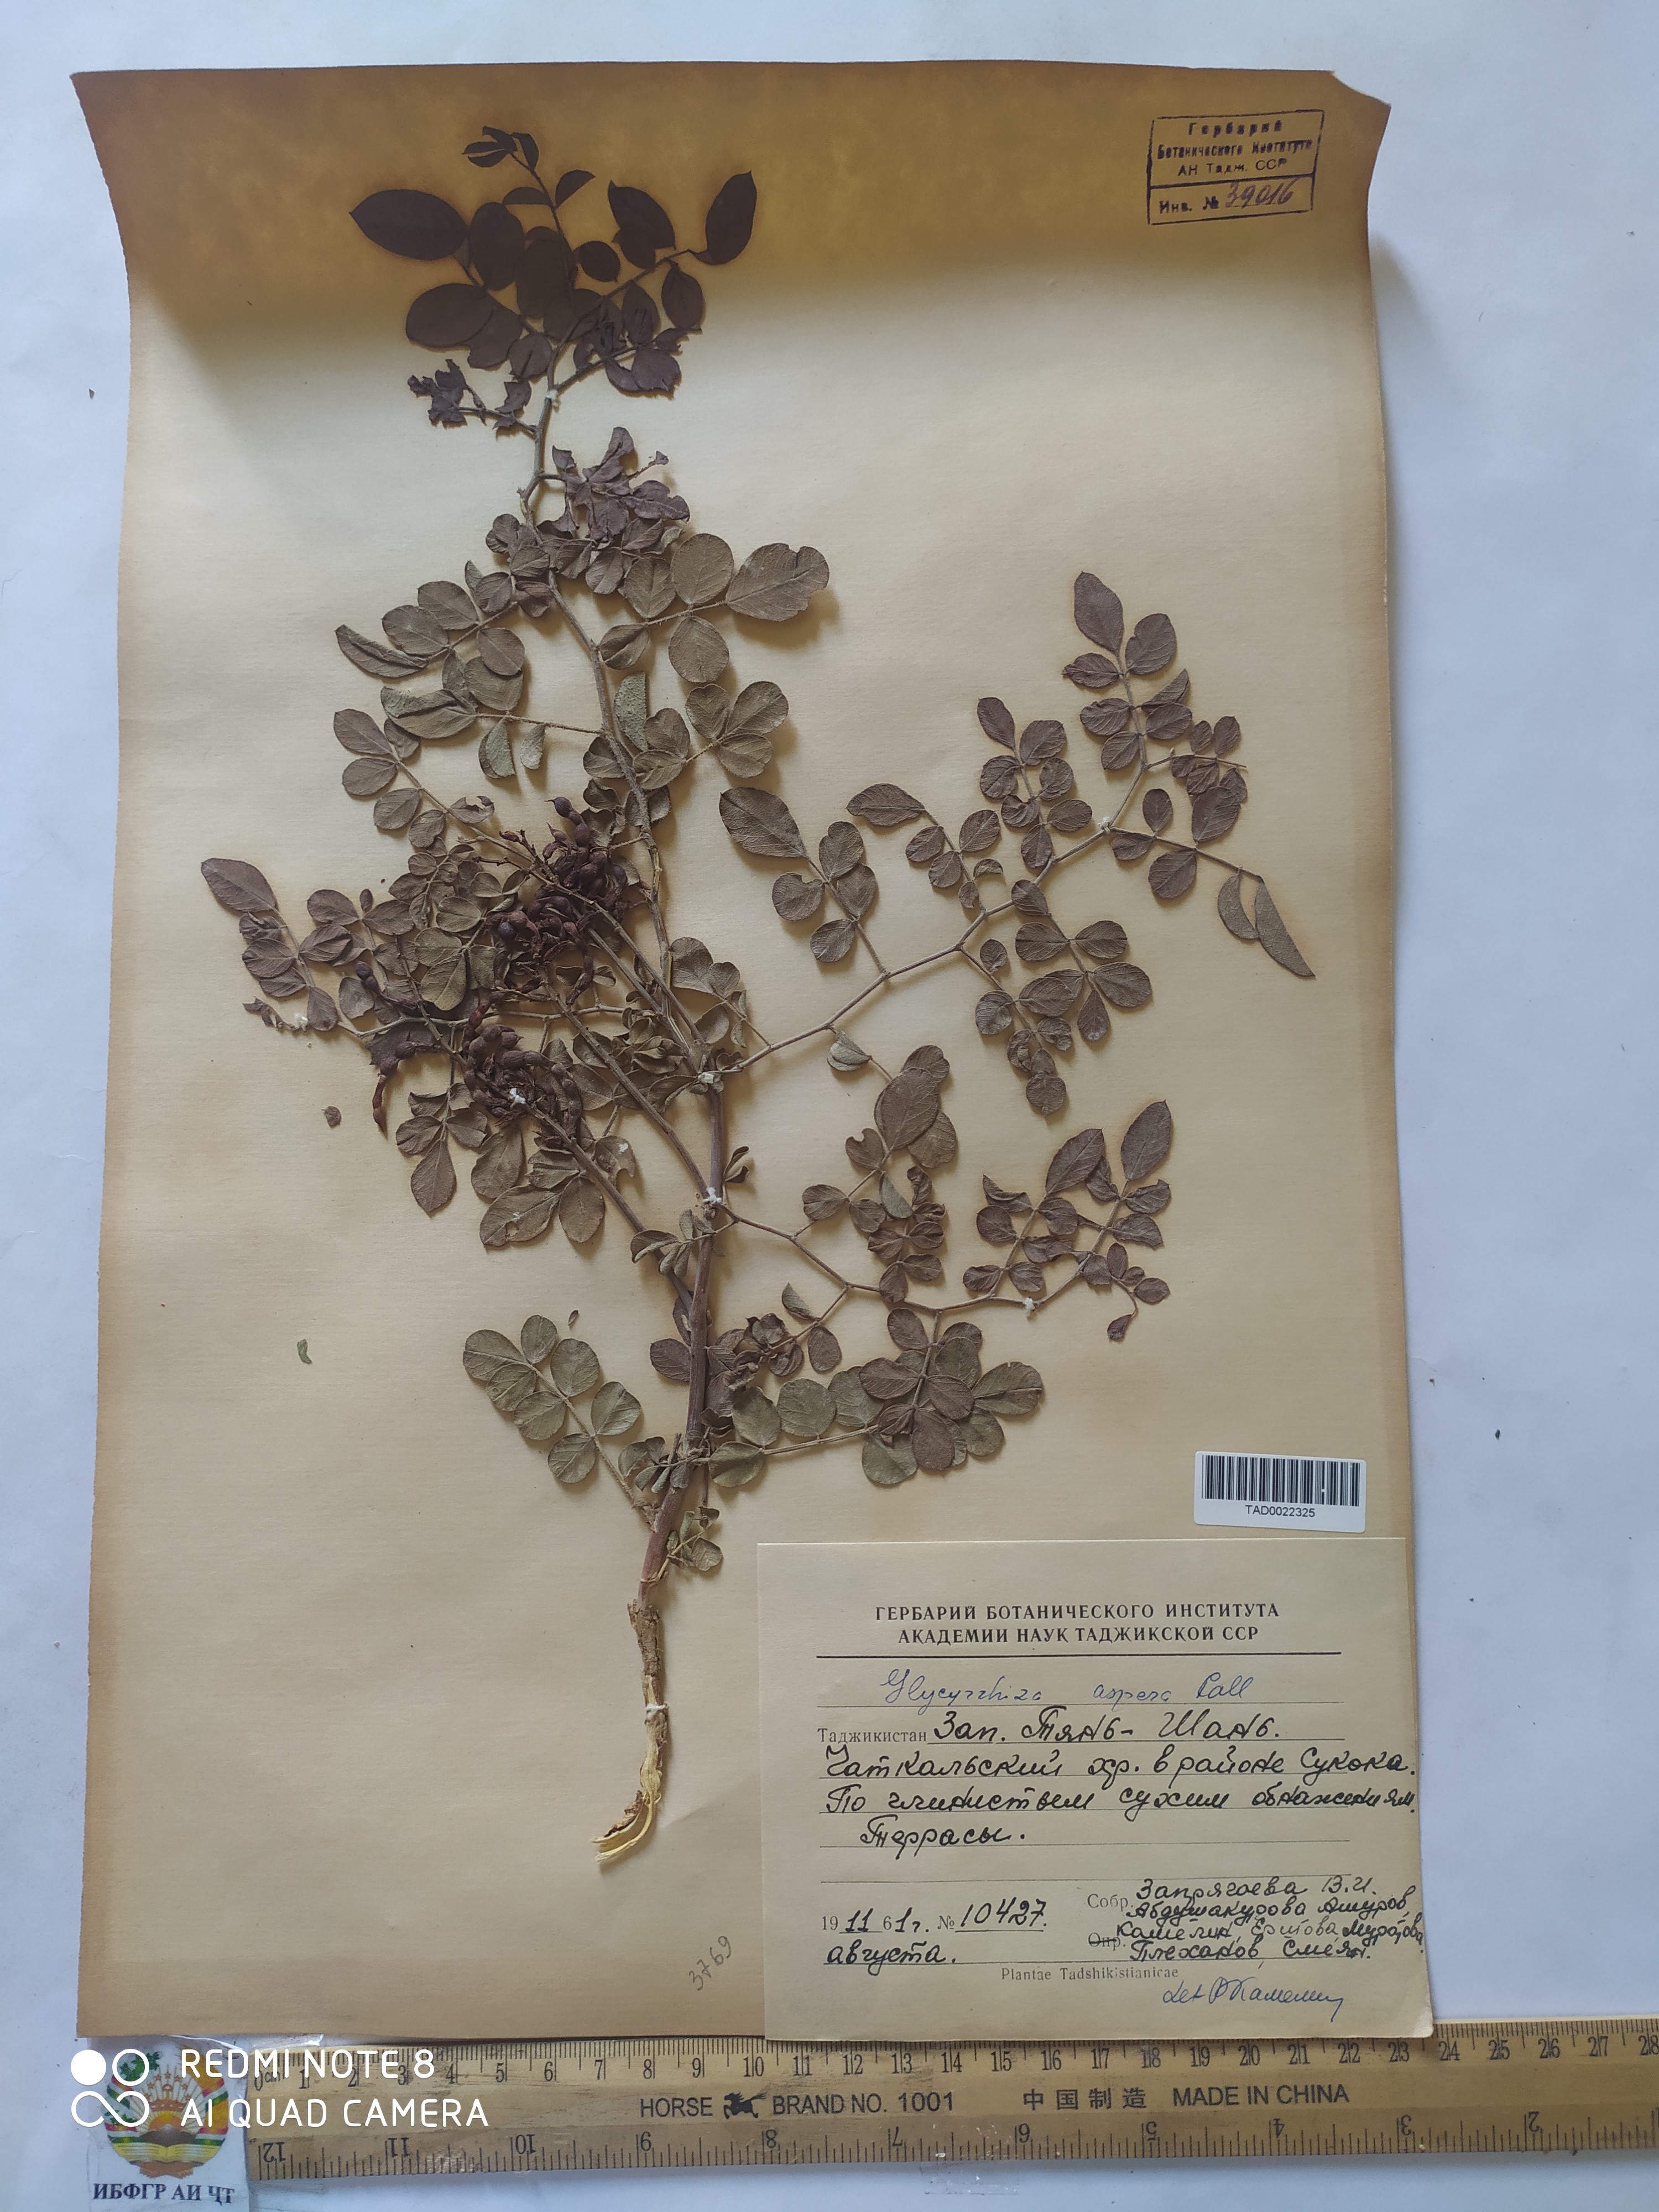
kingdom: Plantae
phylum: Tracheophyta
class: Magnoliopsida
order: Fabales
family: Fabaceae
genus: Glycyrrhiza
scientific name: Glycyrrhiza aspera
